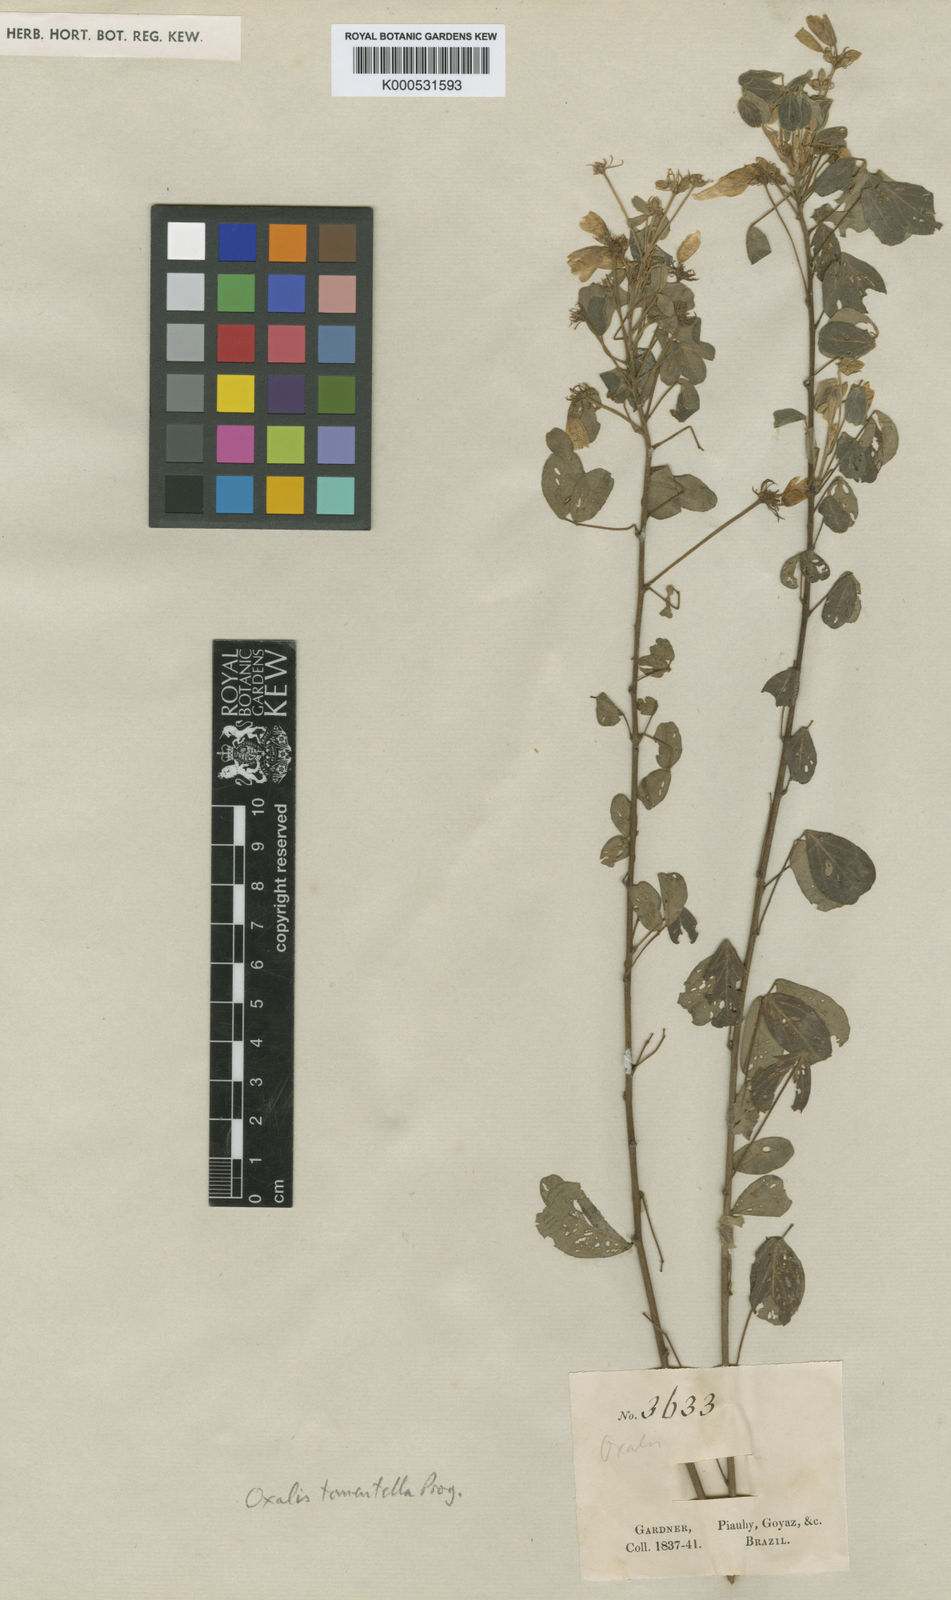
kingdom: Plantae
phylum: Tracheophyta
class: Magnoliopsida
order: Oxalidales
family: Oxalidaceae
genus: Oxalis
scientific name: Oxalis grisea
